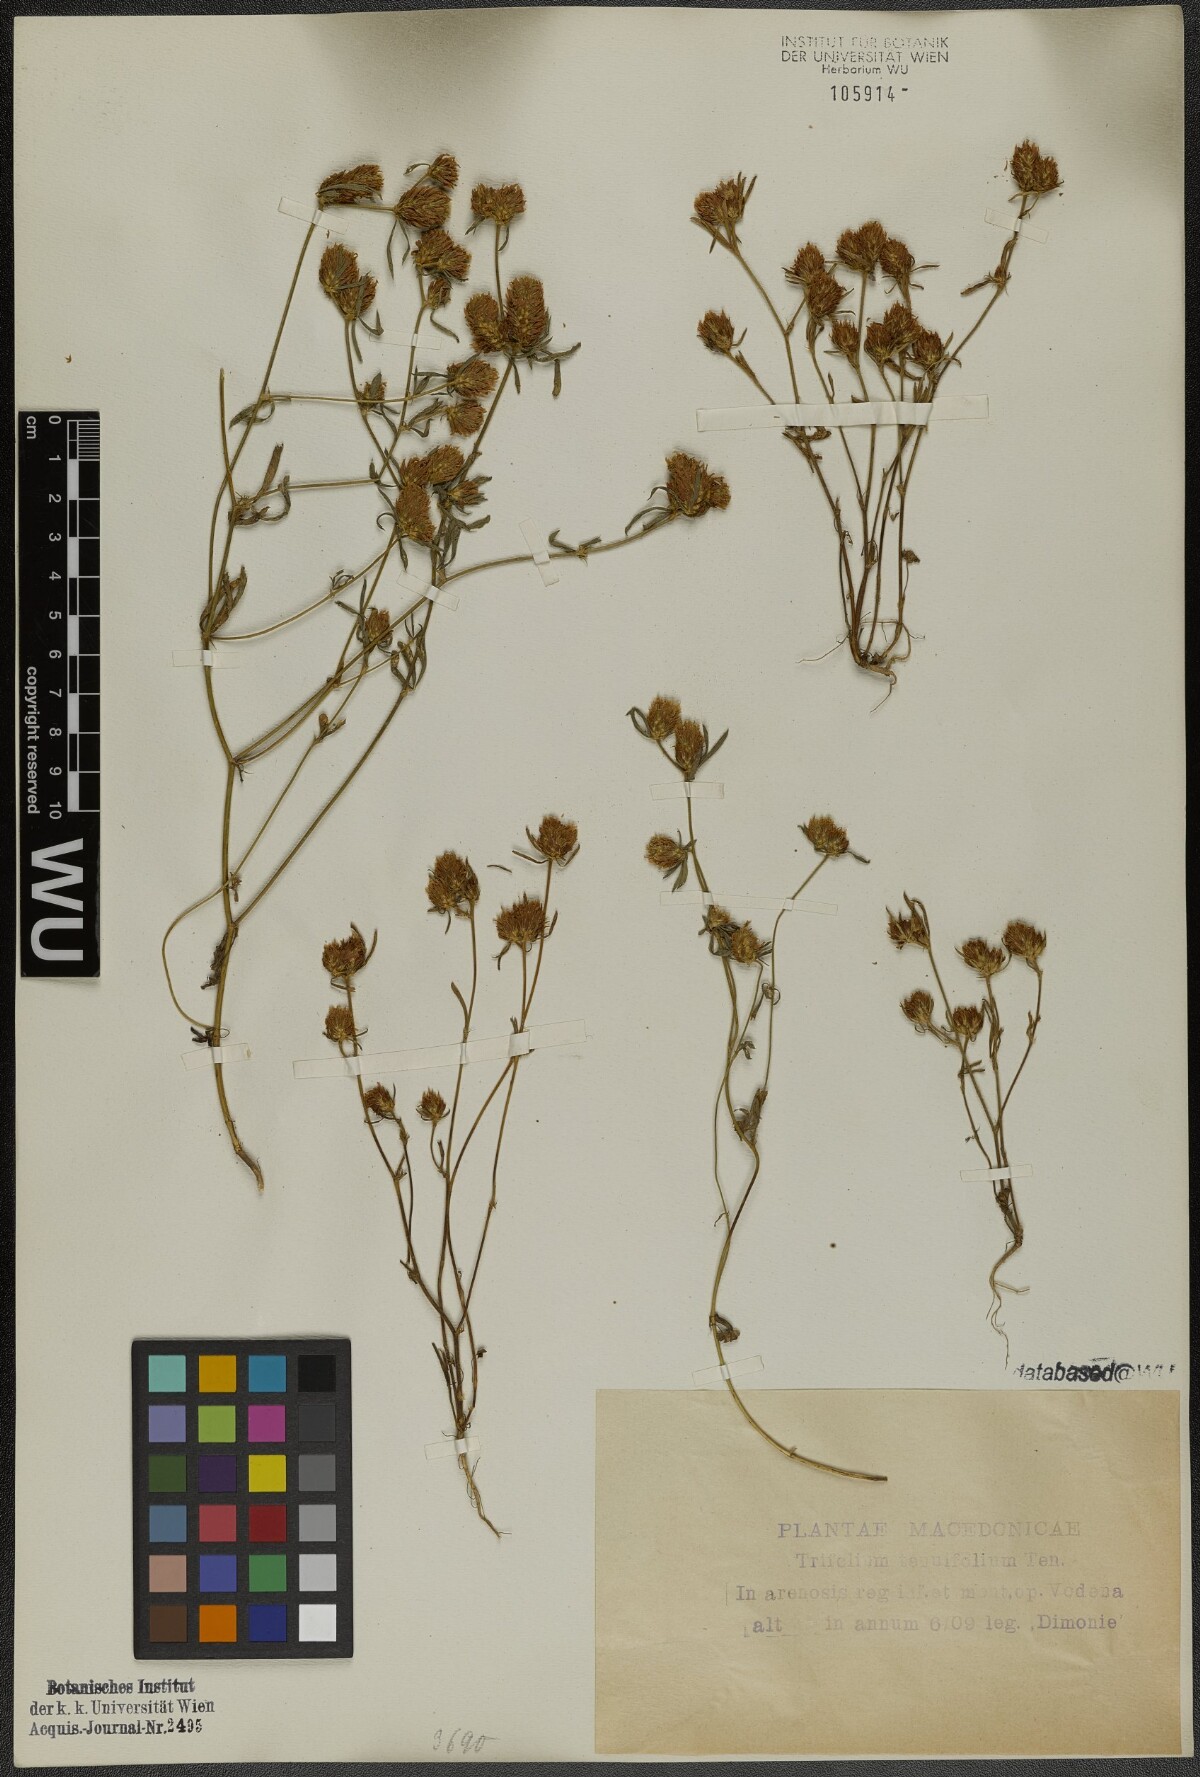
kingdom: Plantae
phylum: Tracheophyta
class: Magnoliopsida
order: Fabales
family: Fabaceae
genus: Trifolium
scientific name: Trifolium tenuifolium
